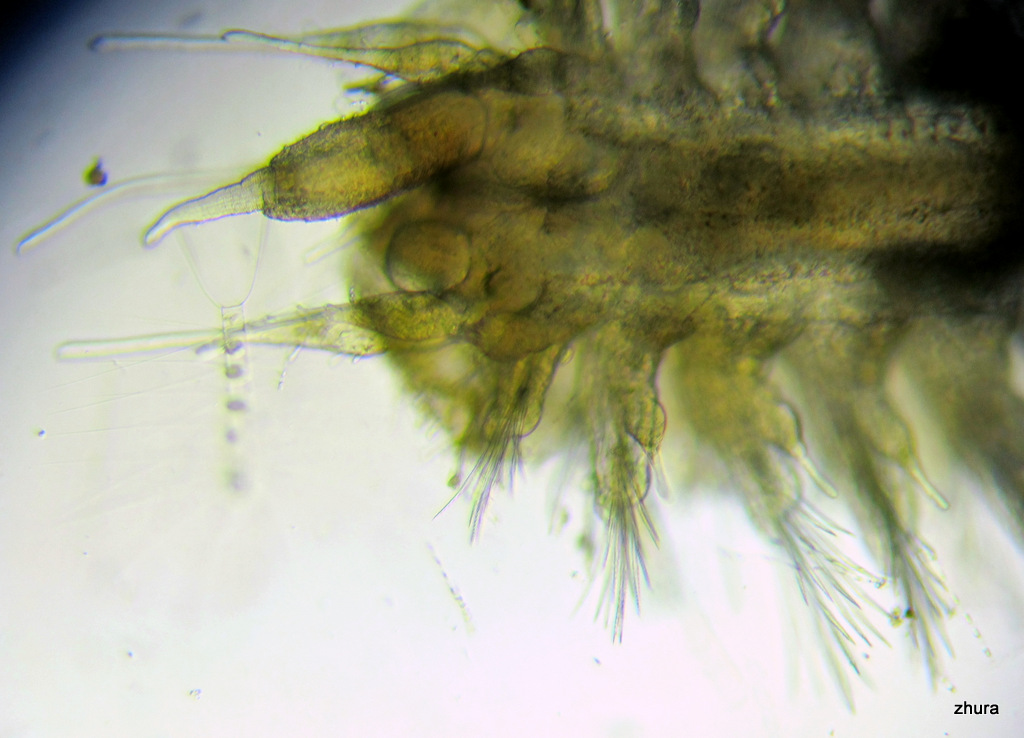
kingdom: Animalia
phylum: Annelida
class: Polychaeta
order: Phyllodocida
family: Polynoidae
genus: Lepidonotus
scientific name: Lepidonotus squamatus
